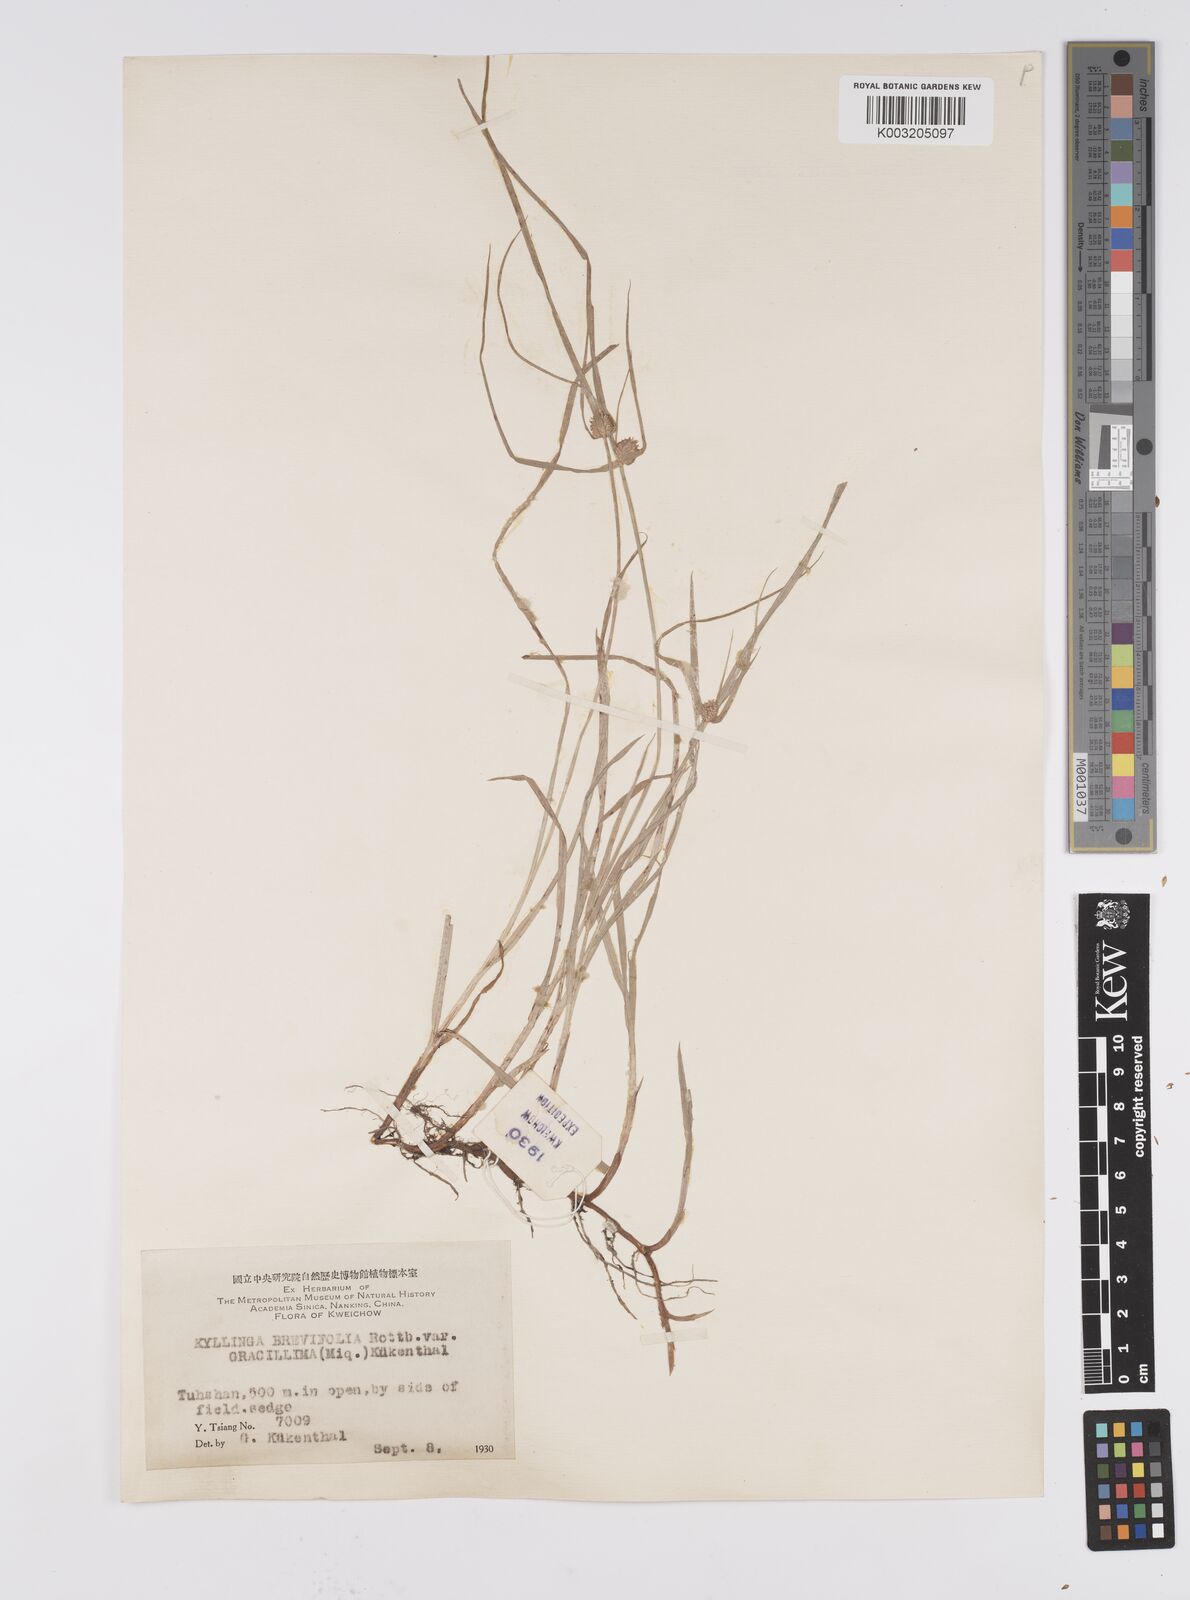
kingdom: Plantae
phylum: Tracheophyta
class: Liliopsida
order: Poales
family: Cyperaceae
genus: Cyperus
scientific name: Cyperus brevifolius
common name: Globe kyllinga
